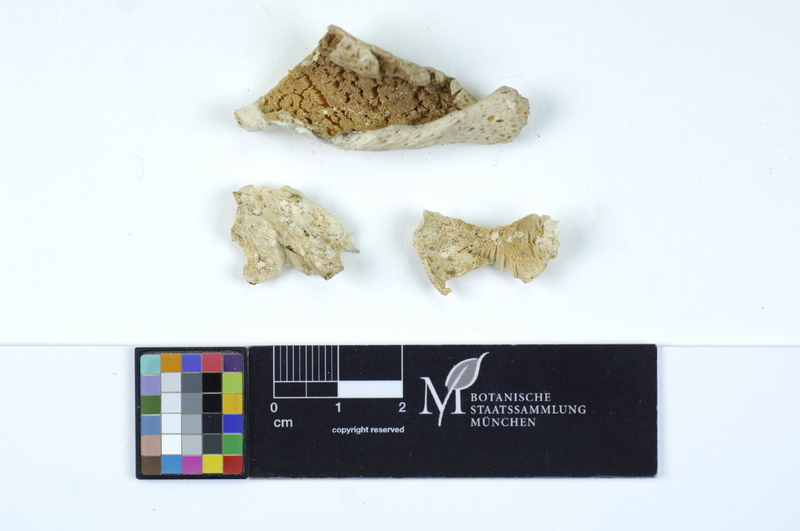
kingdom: Fungi
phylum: Basidiomycota
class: Agaricomycetes
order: Polyporales
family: Dacryobolaceae
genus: Postia
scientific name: Postia ceriflua
